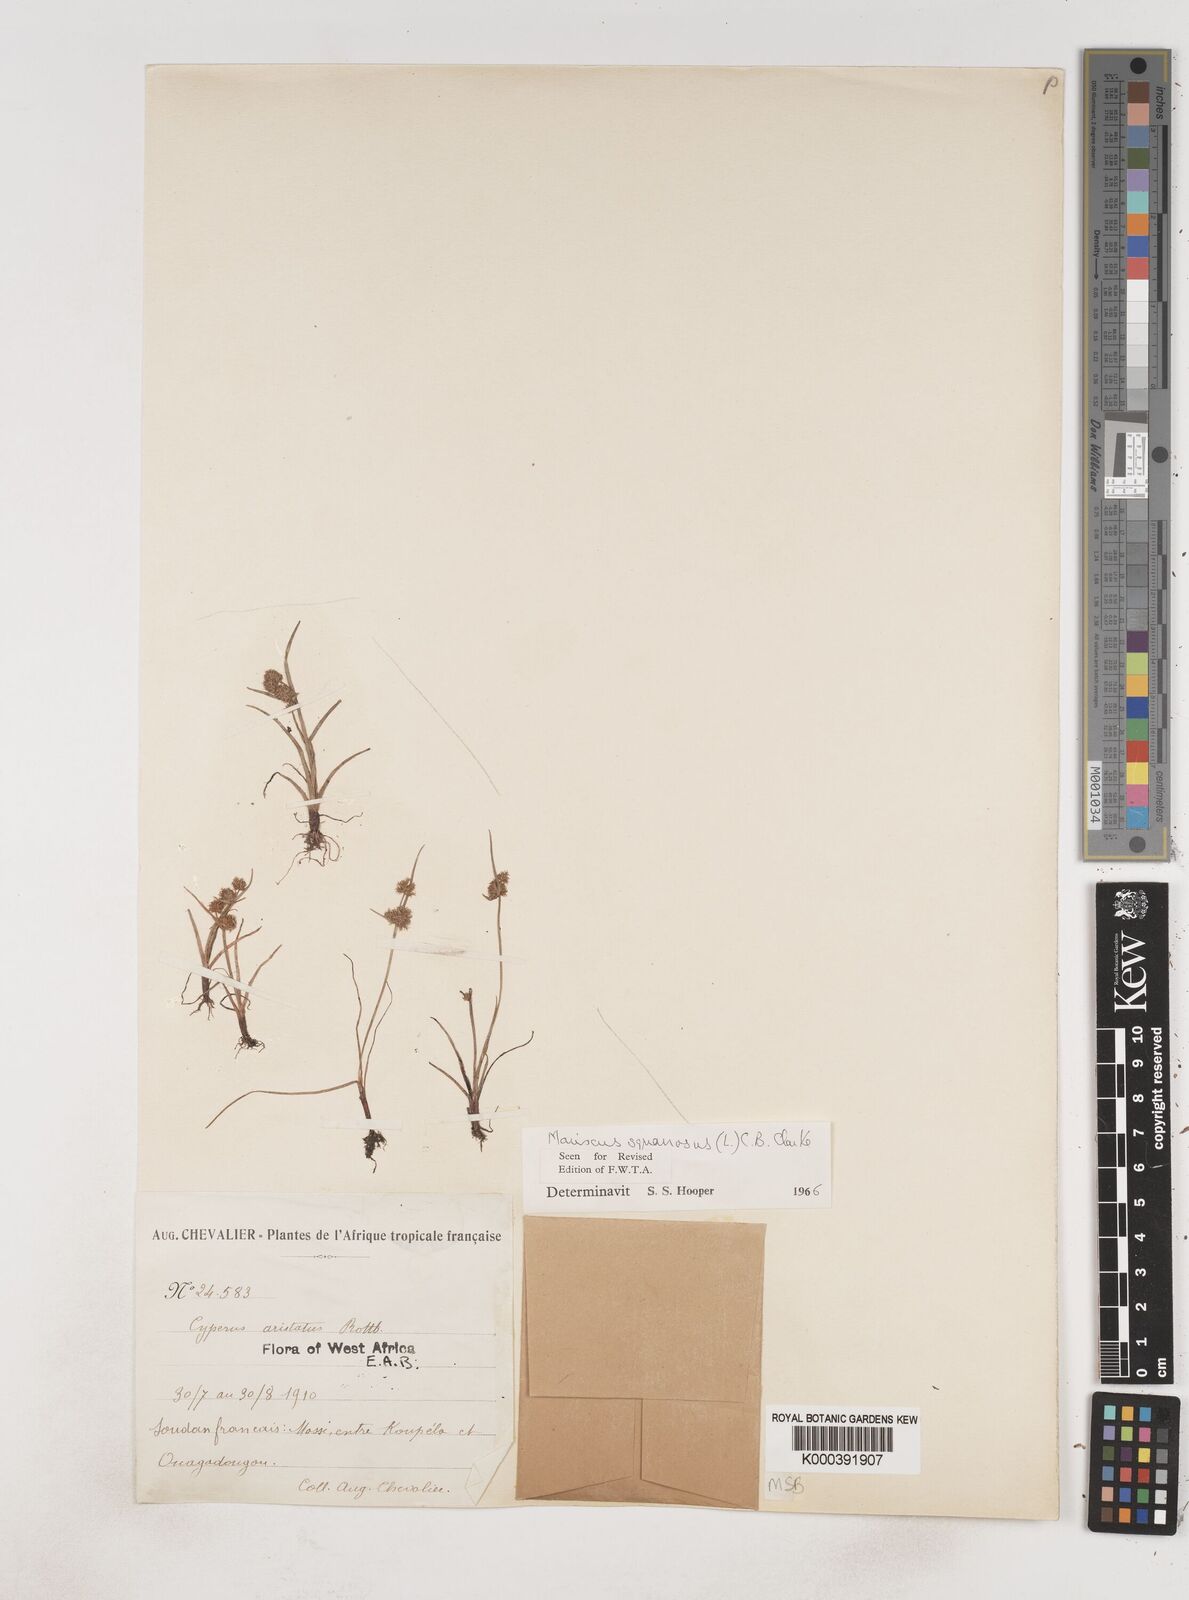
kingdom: Plantae
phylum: Tracheophyta
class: Liliopsida
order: Poales
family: Cyperaceae
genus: Cyperus
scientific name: Cyperus squarrosus
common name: Awned cyperus
